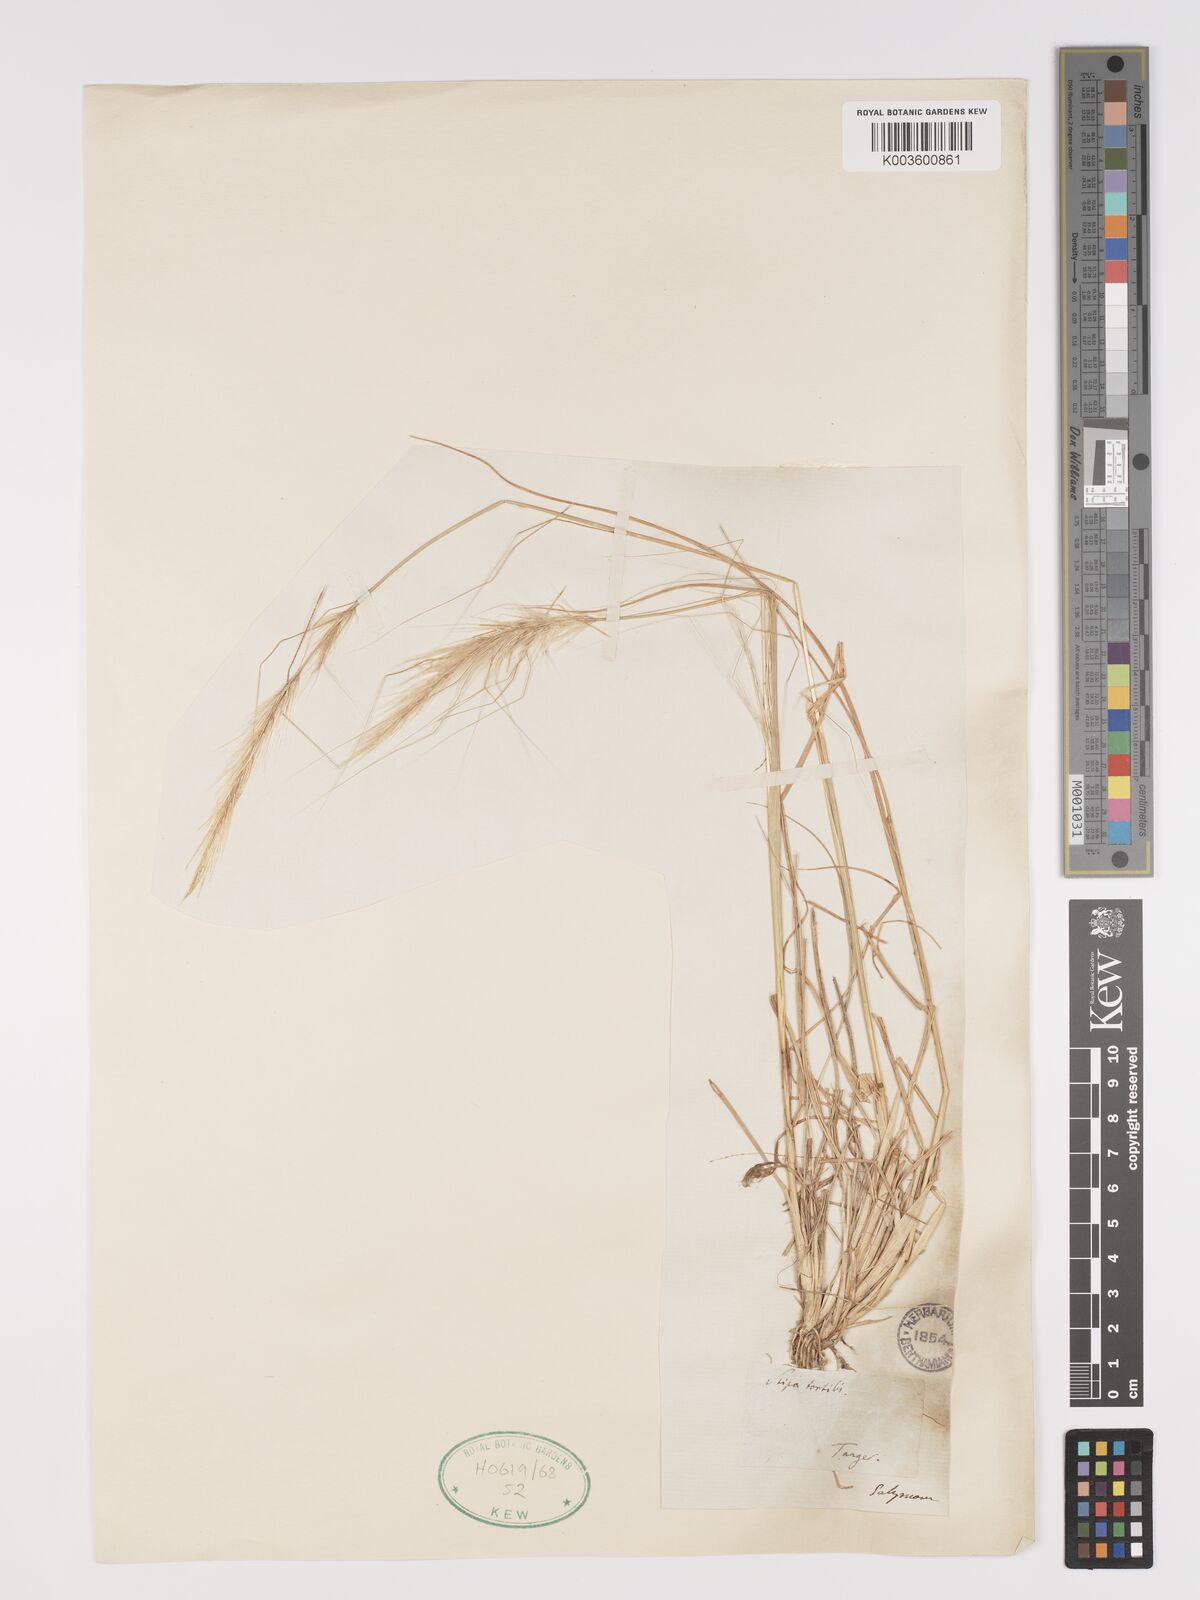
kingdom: Plantae
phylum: Tracheophyta
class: Liliopsida
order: Poales
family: Poaceae
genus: Stipellula
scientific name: Stipellula capensis
